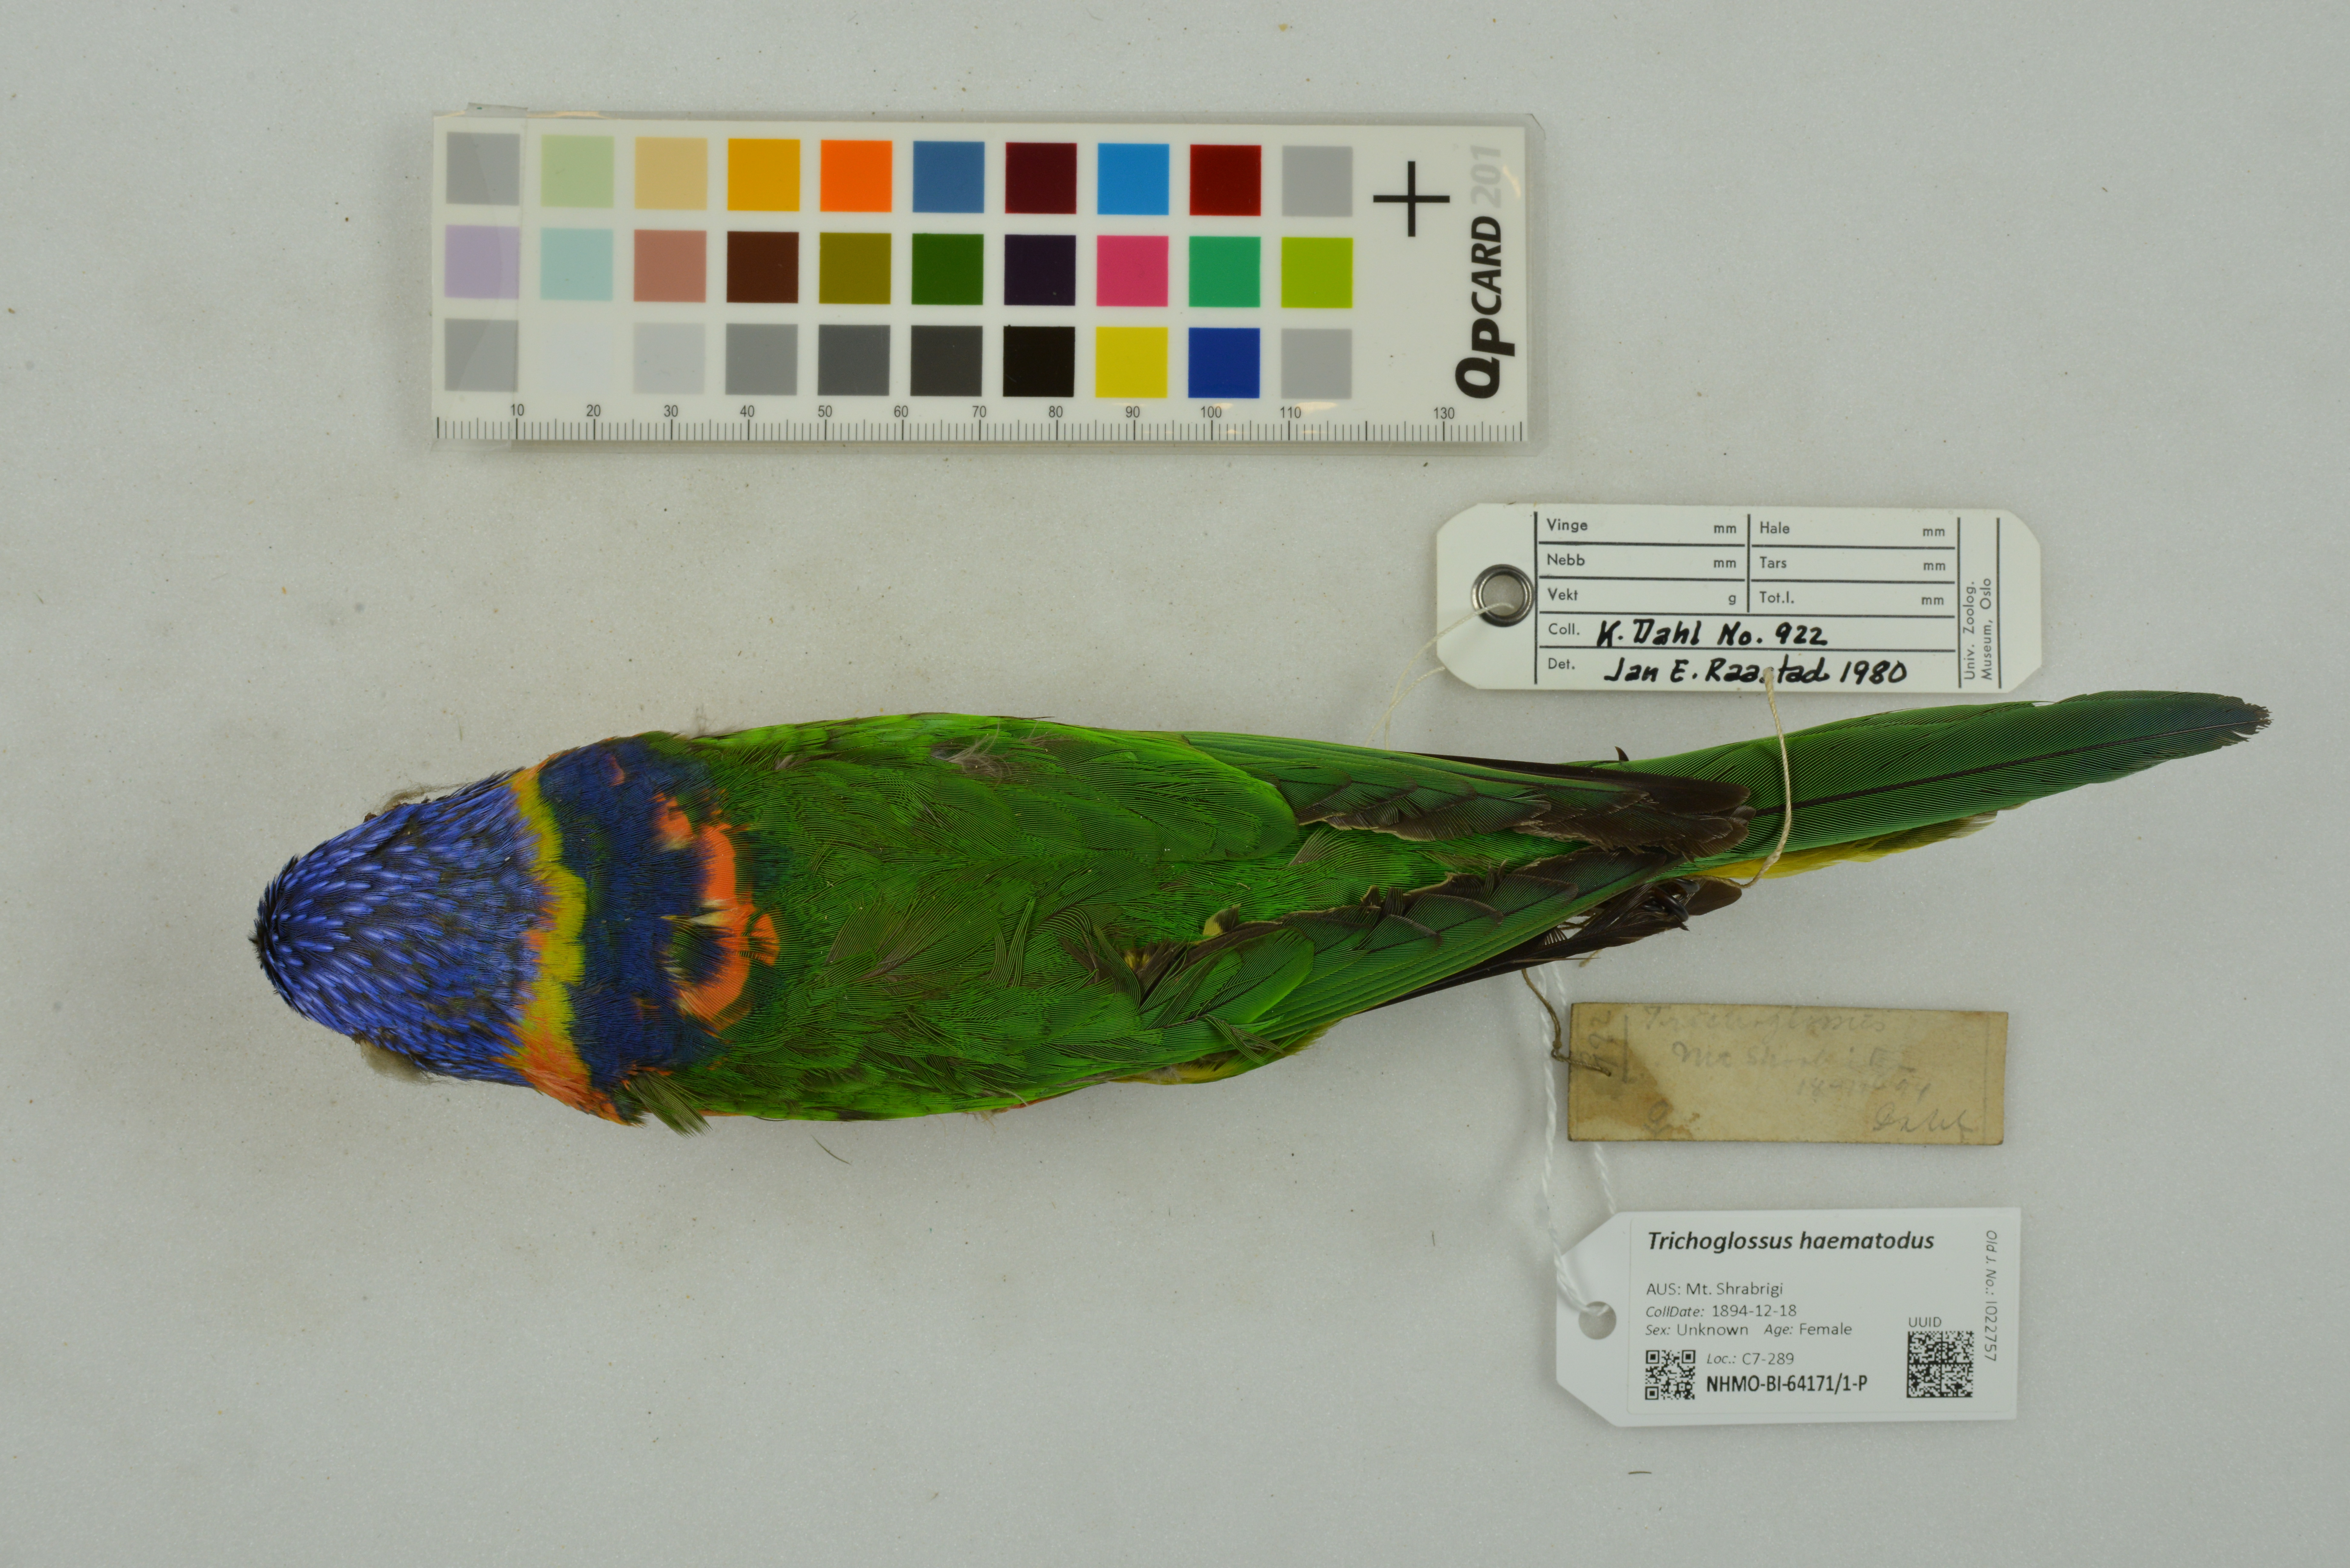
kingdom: Animalia
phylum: Chordata
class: Aves
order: Psittaciformes
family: Psittacidae
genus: Trichoglossus
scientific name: Trichoglossus haematodus
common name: Coconut lorikeet
